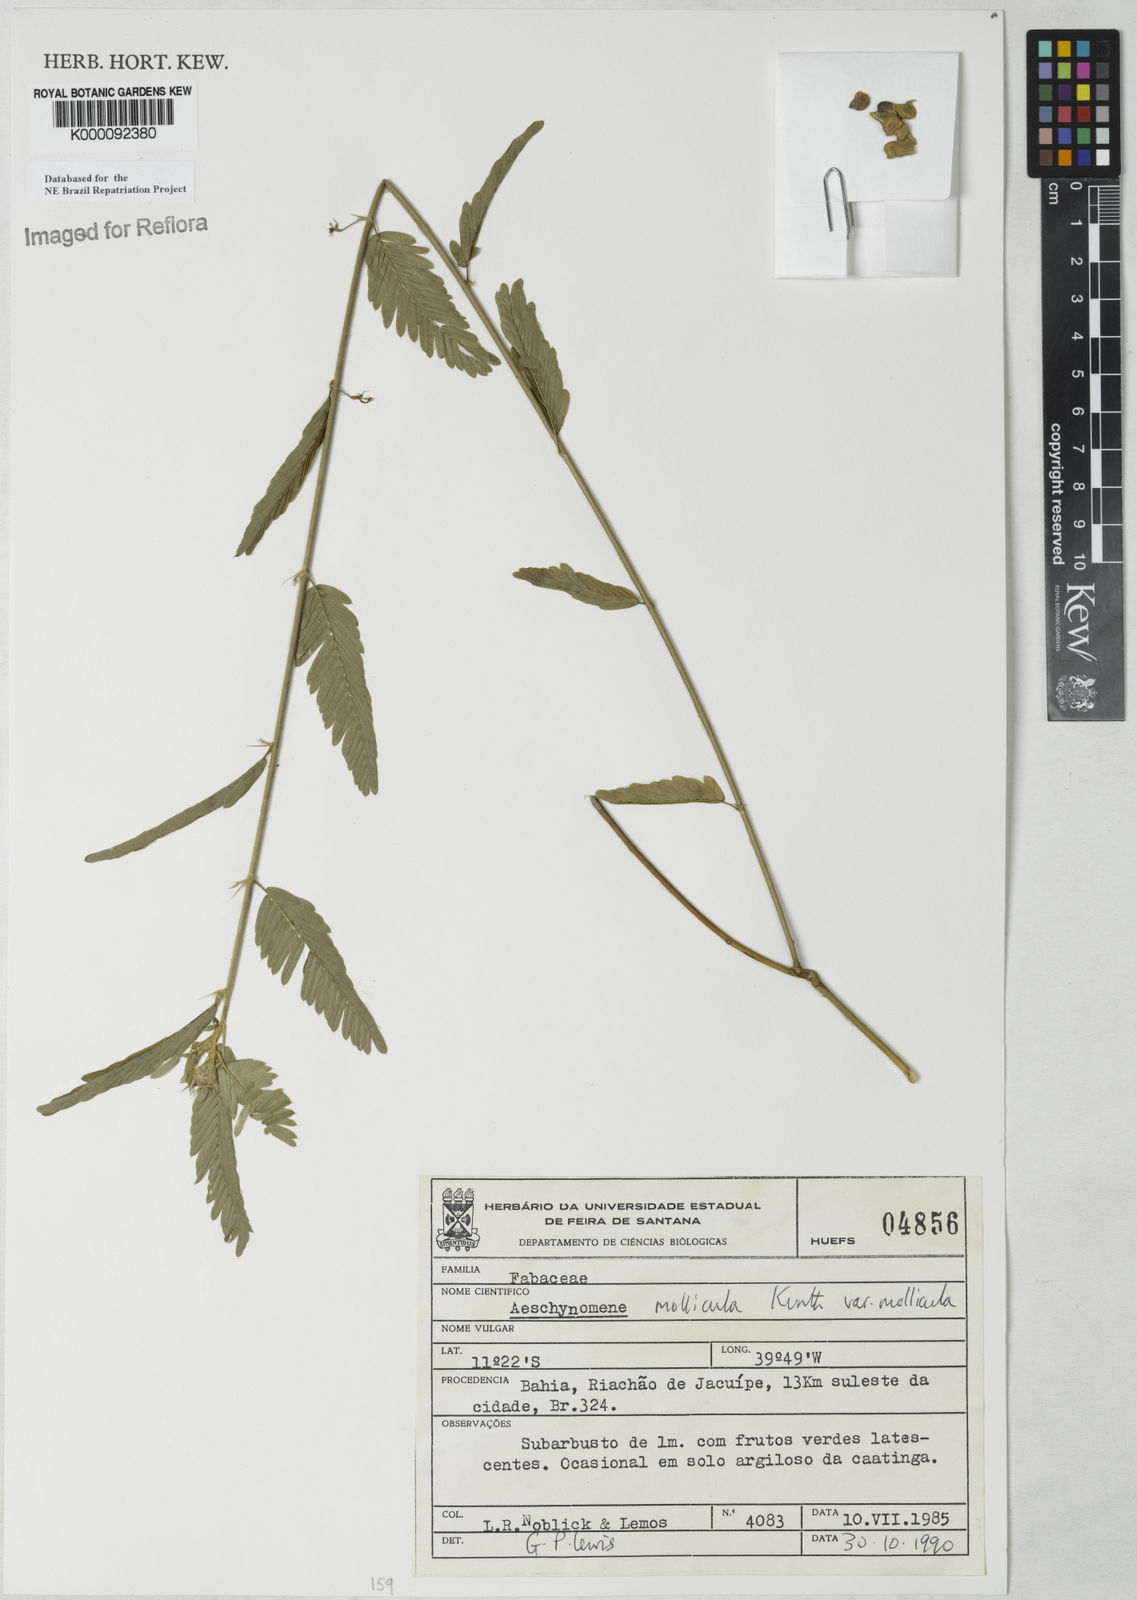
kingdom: Plantae
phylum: Tracheophyta
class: Magnoliopsida
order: Fabales
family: Fabaceae
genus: Ctenodon
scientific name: Ctenodon molliculus
